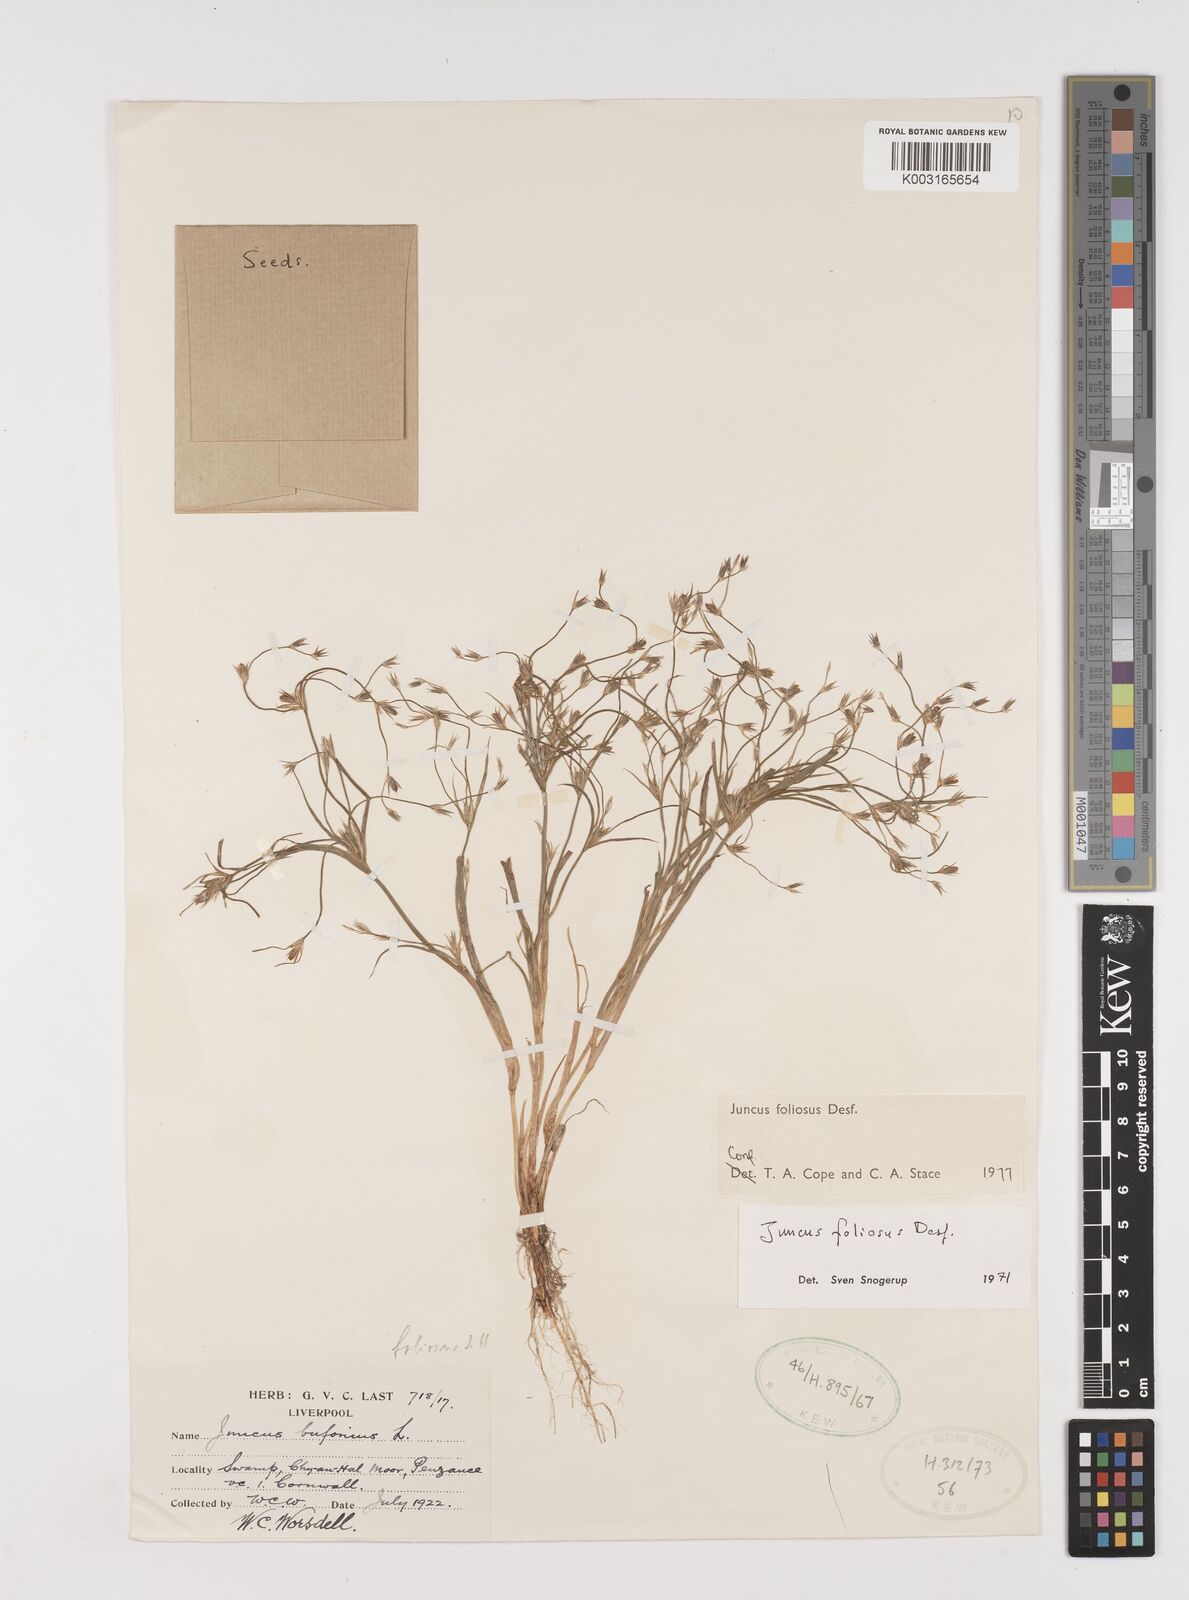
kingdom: Plantae
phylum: Tracheophyta
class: Liliopsida
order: Poales
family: Juncaceae
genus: Juncus
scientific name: Juncus foliosus
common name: Leafy rush
